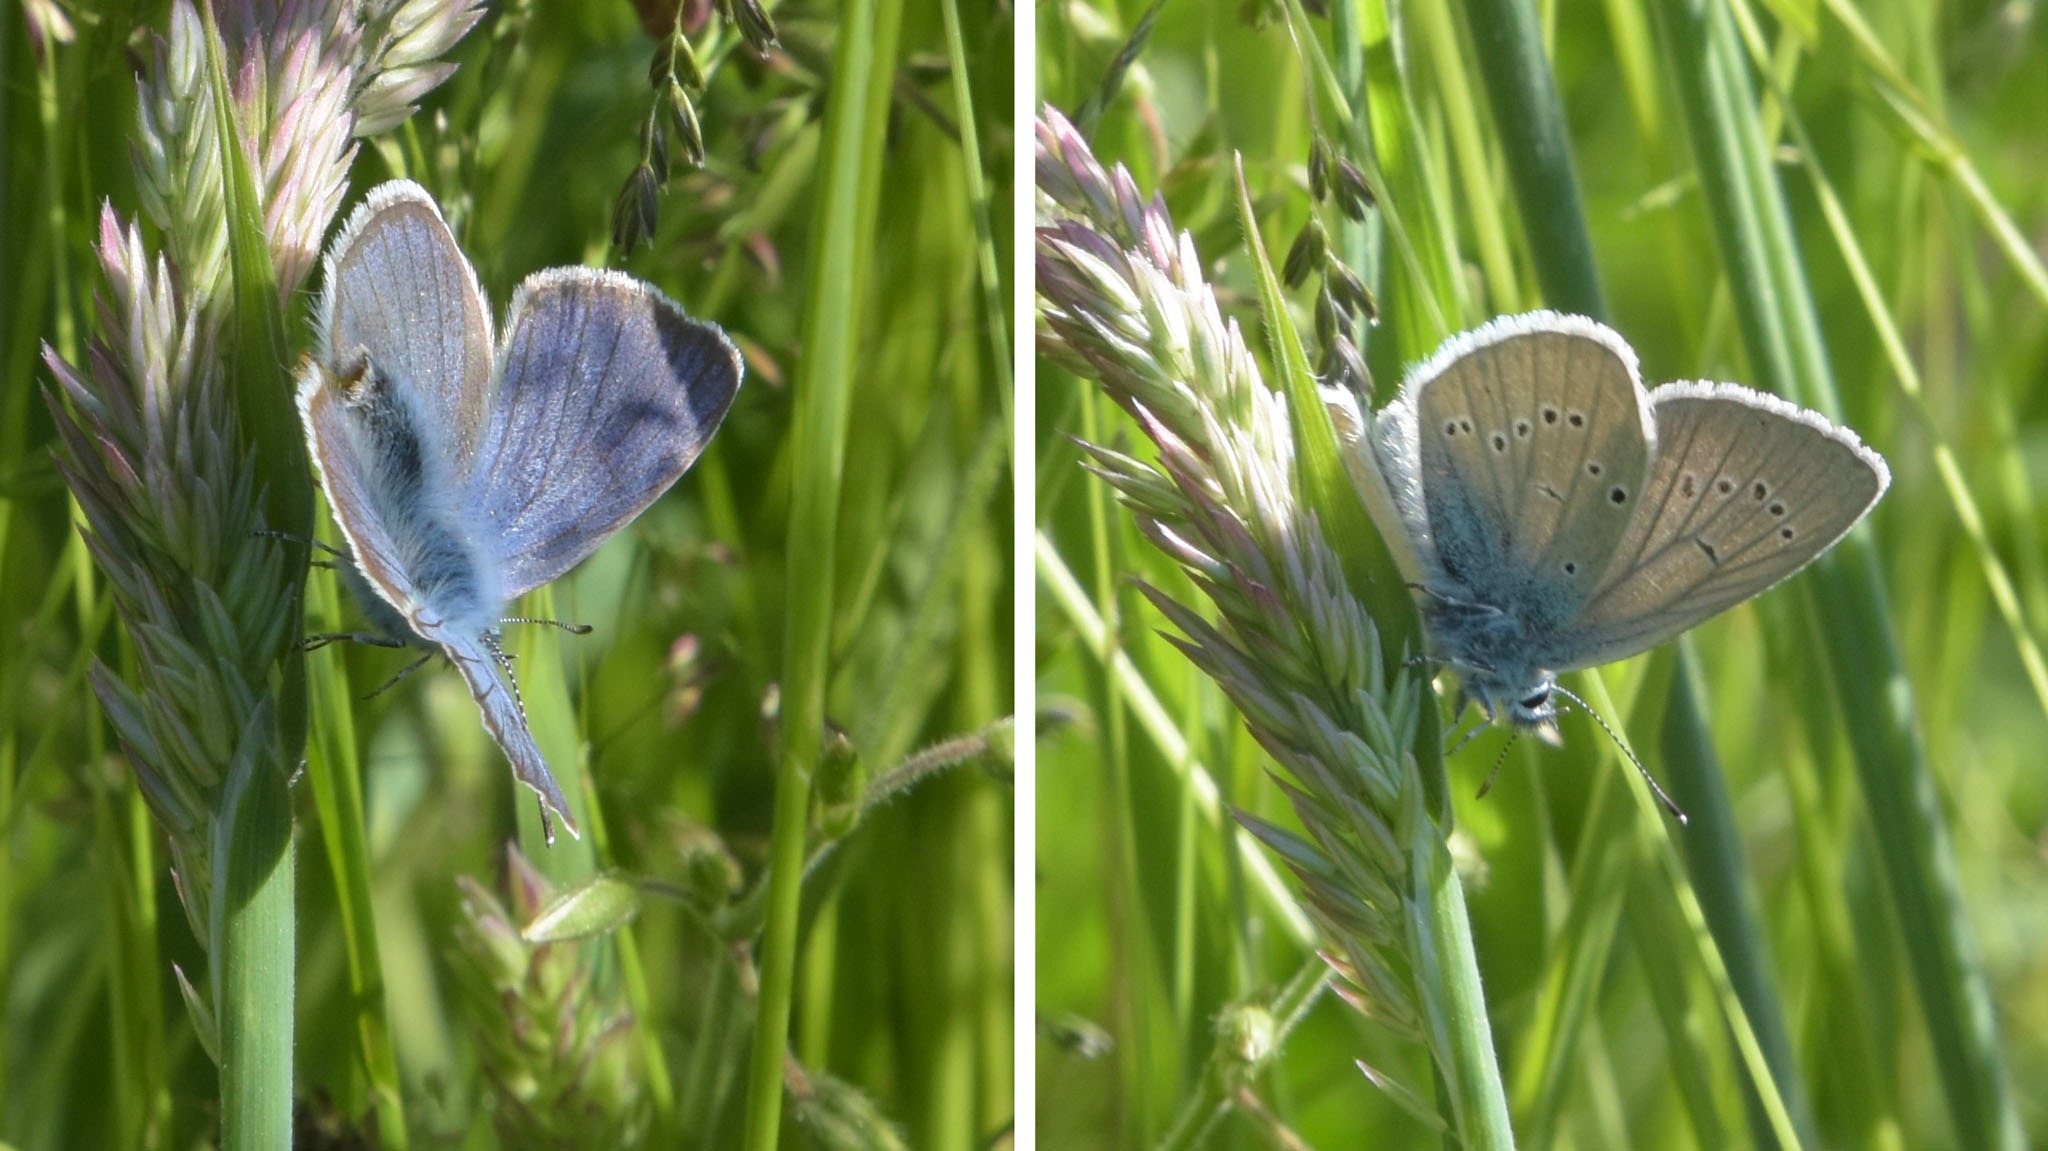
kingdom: Animalia
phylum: Arthropoda
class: Insecta
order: Lepidoptera
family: Lycaenidae
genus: Cyaniris
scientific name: Cyaniris semiargus
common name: Engblåfugl
